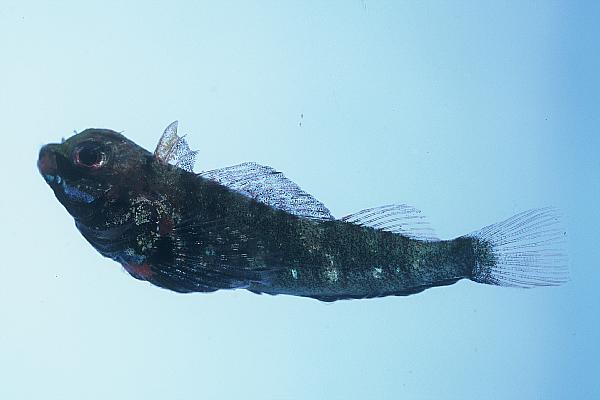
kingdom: Animalia
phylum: Chordata
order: Perciformes
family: Tripterygiidae
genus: Helcogramma
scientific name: Helcogramma rharhabe
